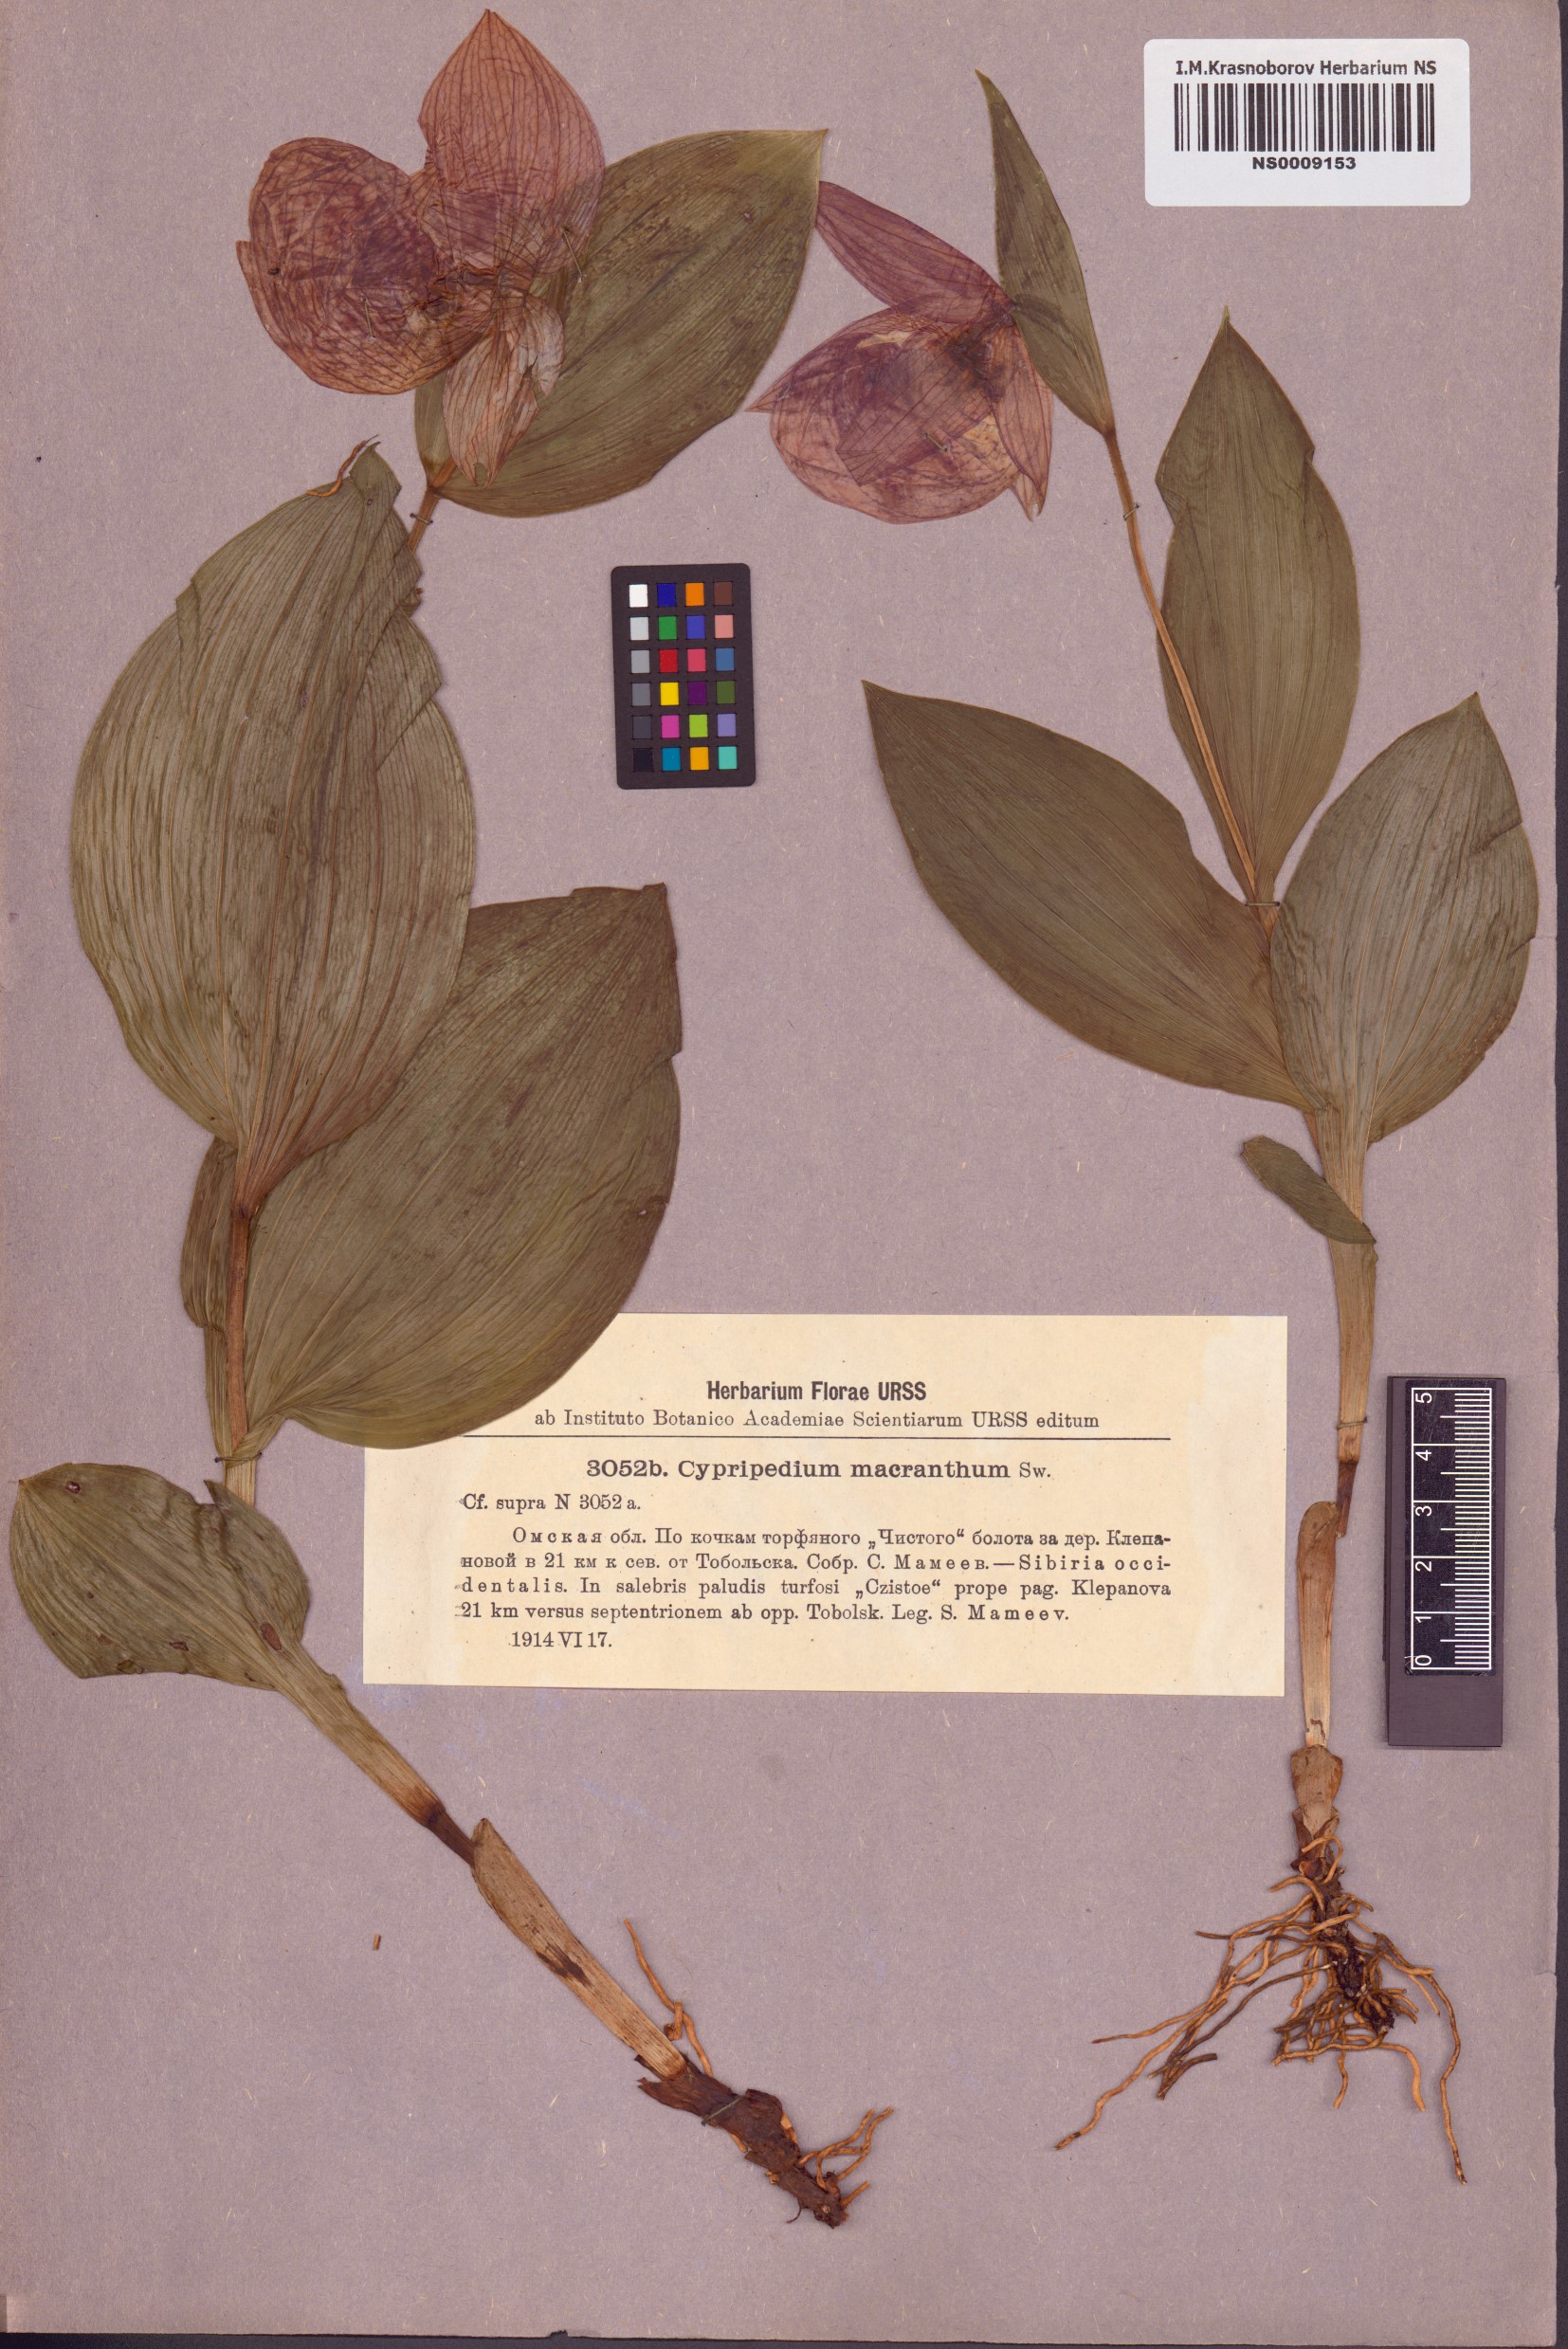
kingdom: Plantae
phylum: Tracheophyta
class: Liliopsida
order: Asparagales
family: Orchidaceae
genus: Cypripedium
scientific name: Cypripedium macranthos
